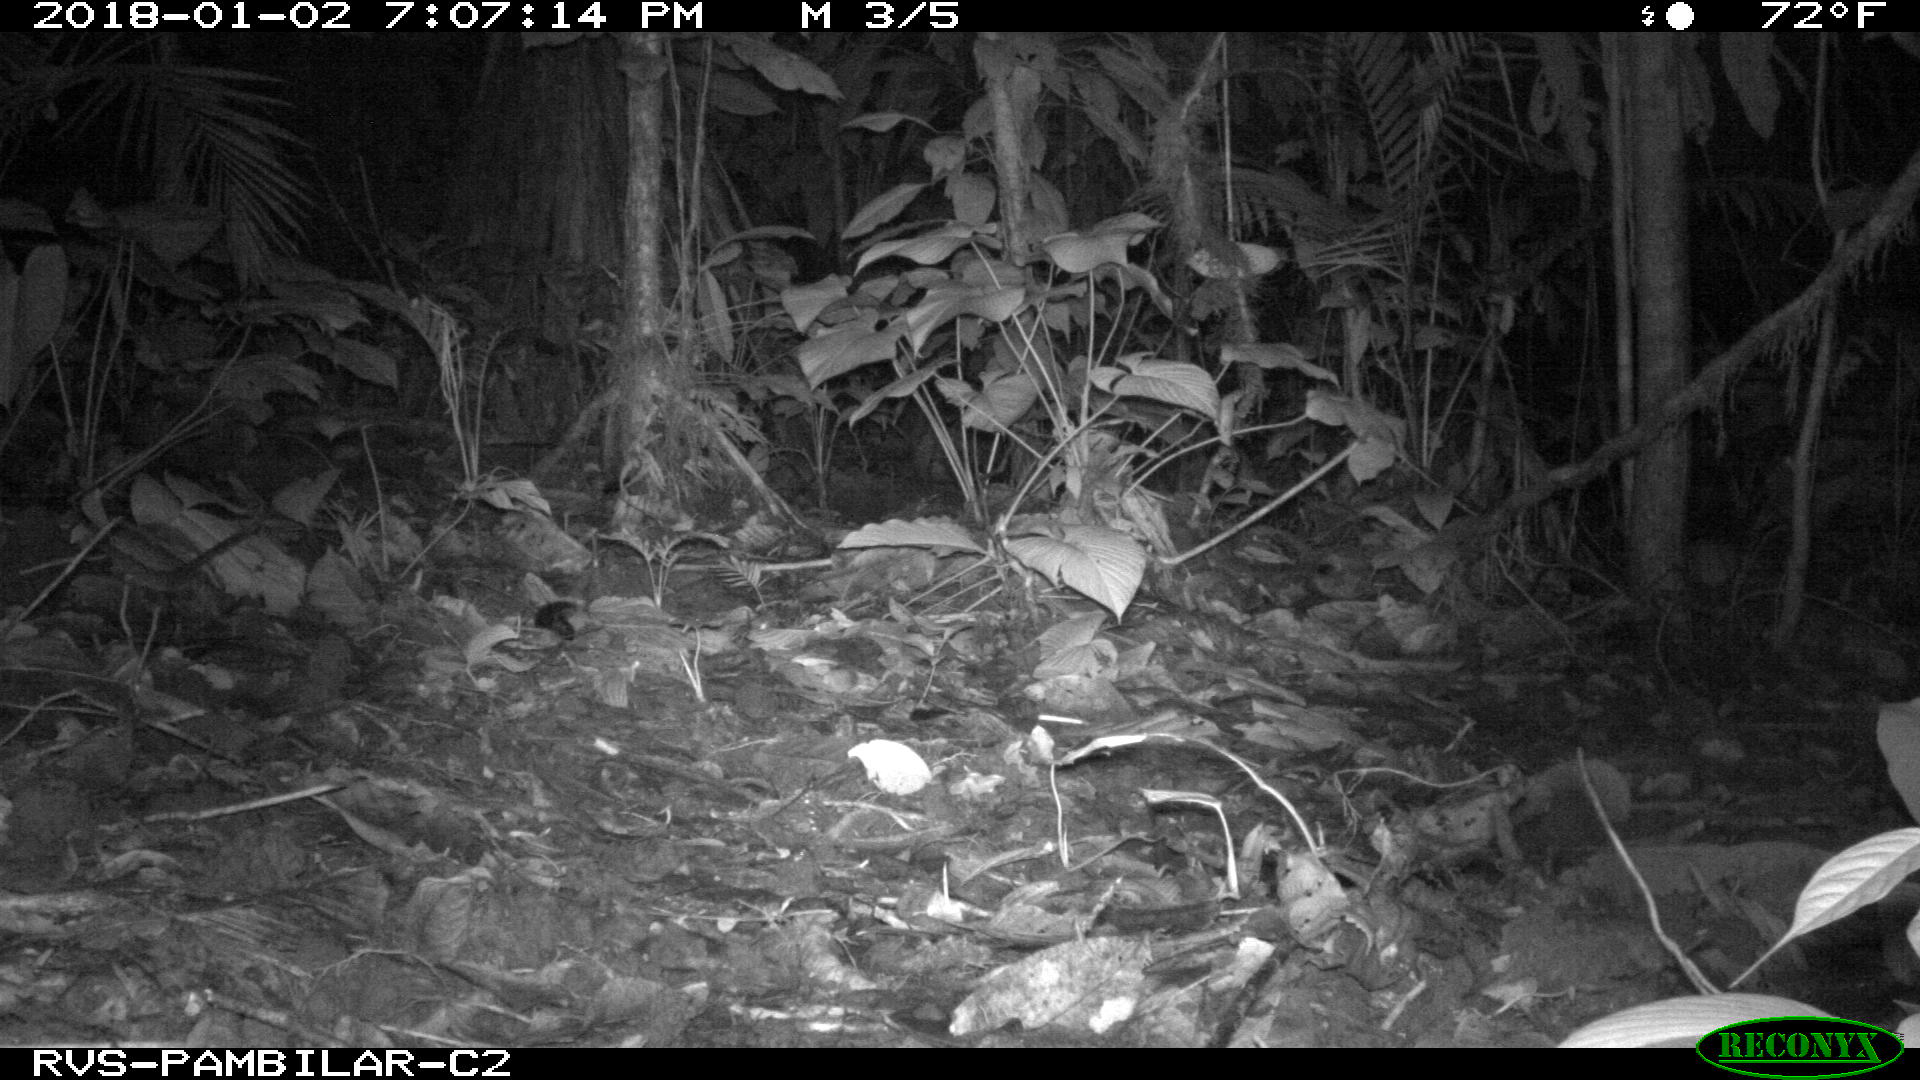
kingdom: Animalia
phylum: Chordata
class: Mammalia
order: Rodentia
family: Echimyidae
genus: Proechimys
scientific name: Proechimys
